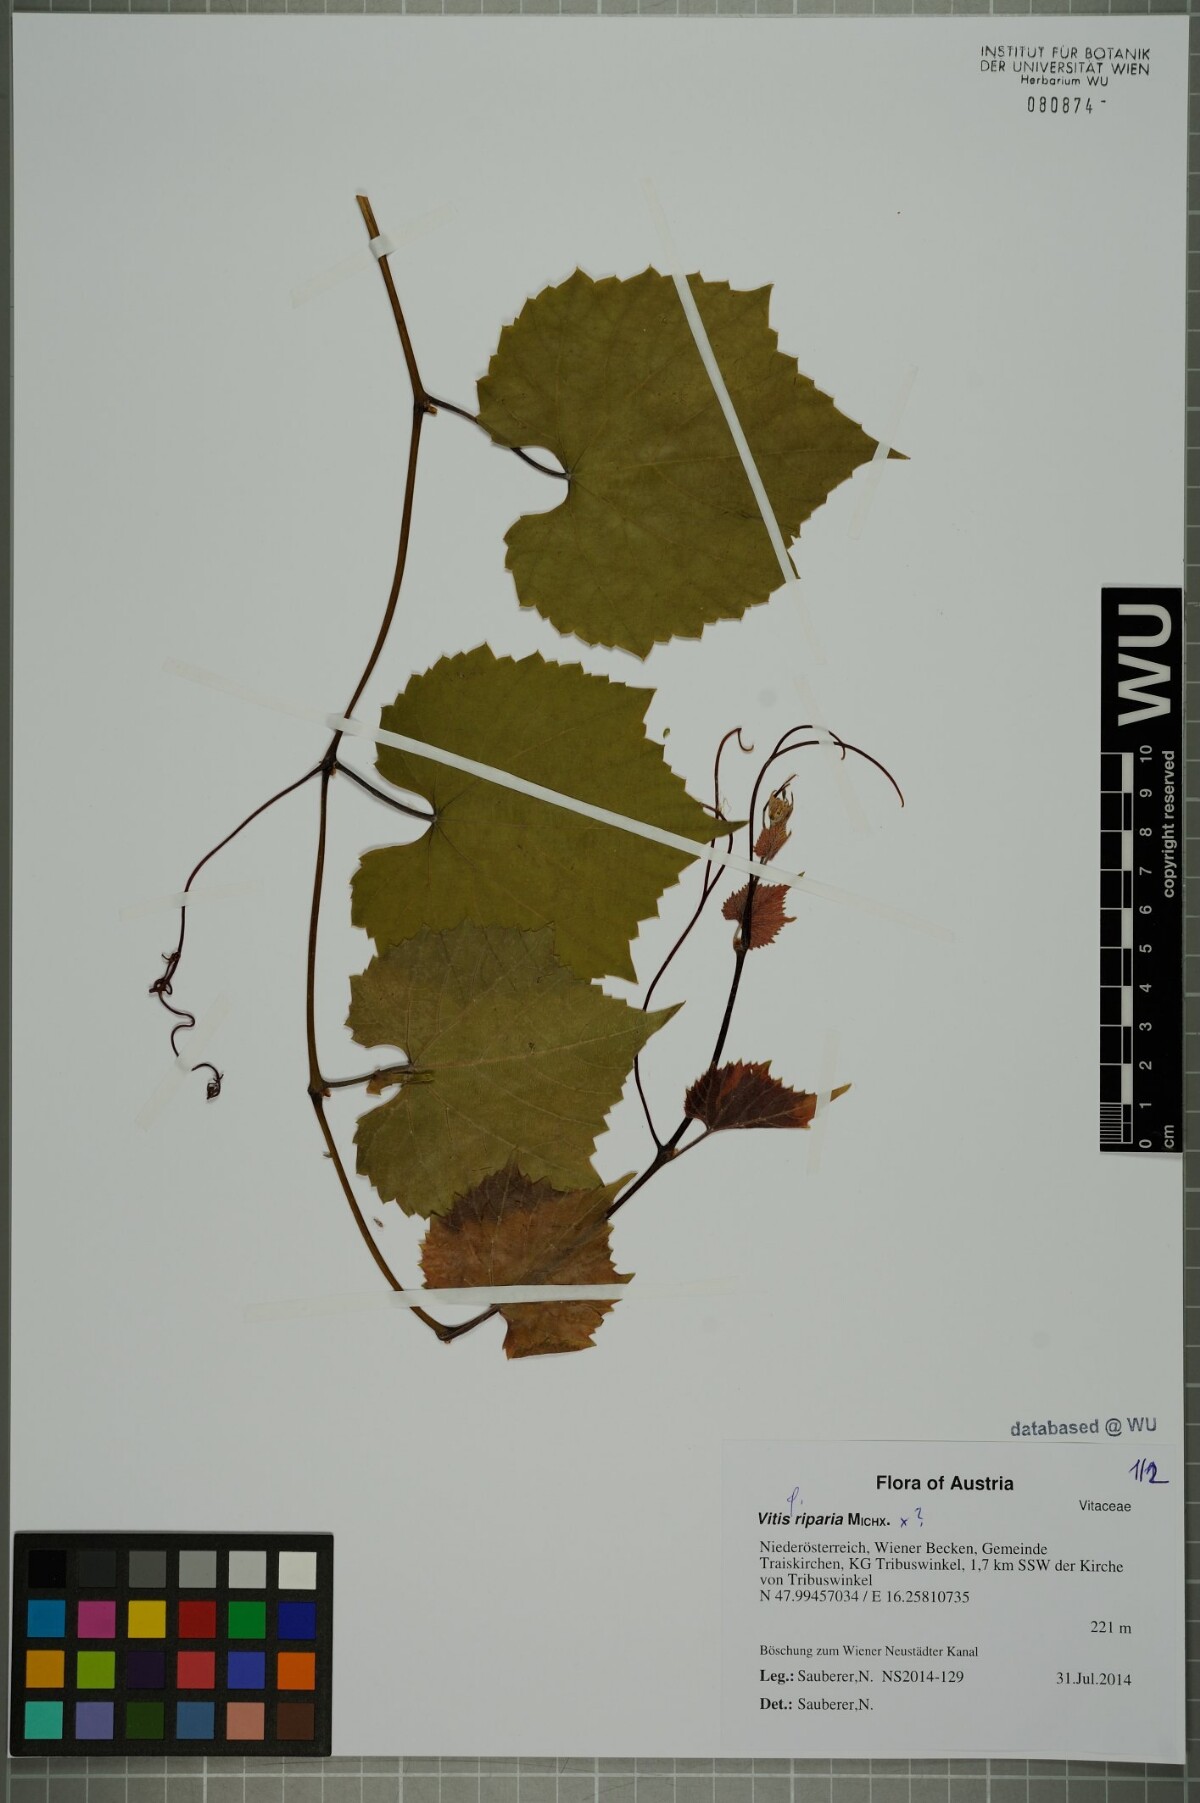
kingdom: Plantae
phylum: Tracheophyta
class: Magnoliopsida
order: Vitales
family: Vitaceae
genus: Vitis
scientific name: Vitis riparia
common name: Frost grape
